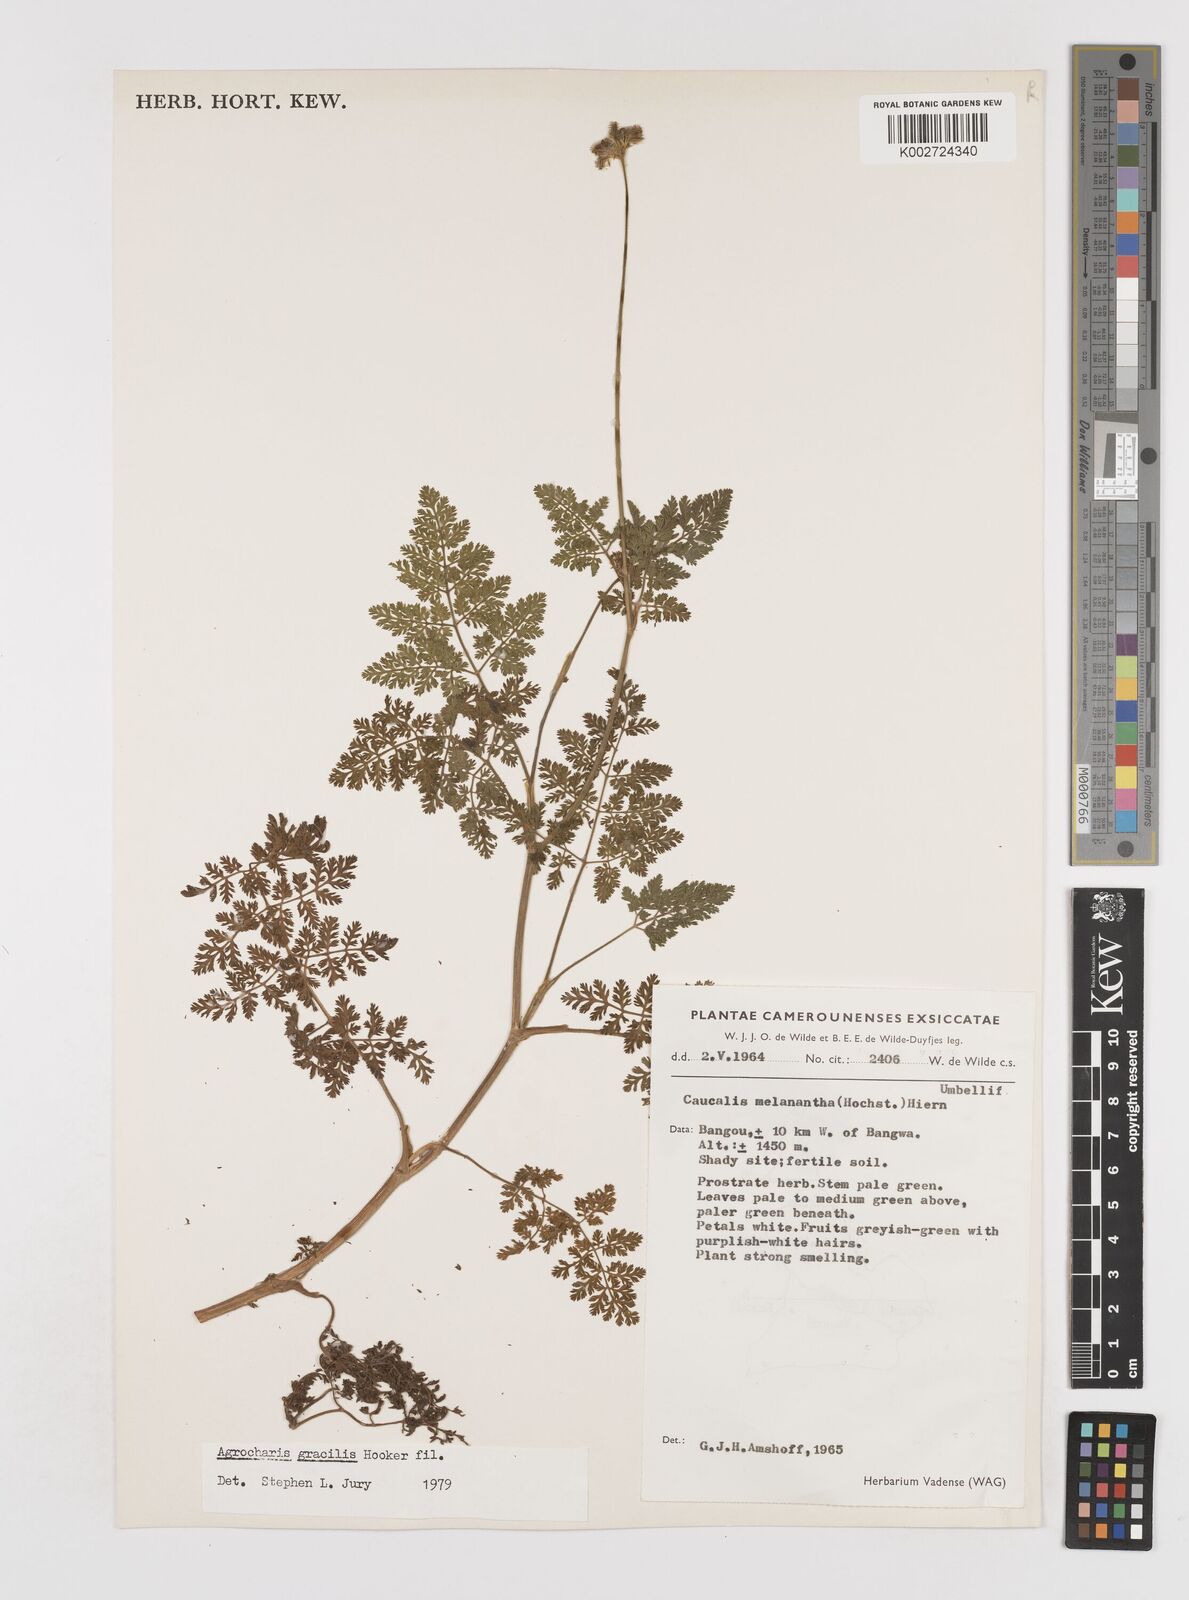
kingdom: Plantae
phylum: Tracheophyta
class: Magnoliopsida
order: Apiales
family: Apiaceae
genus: Daucus
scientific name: Daucus melananthus
